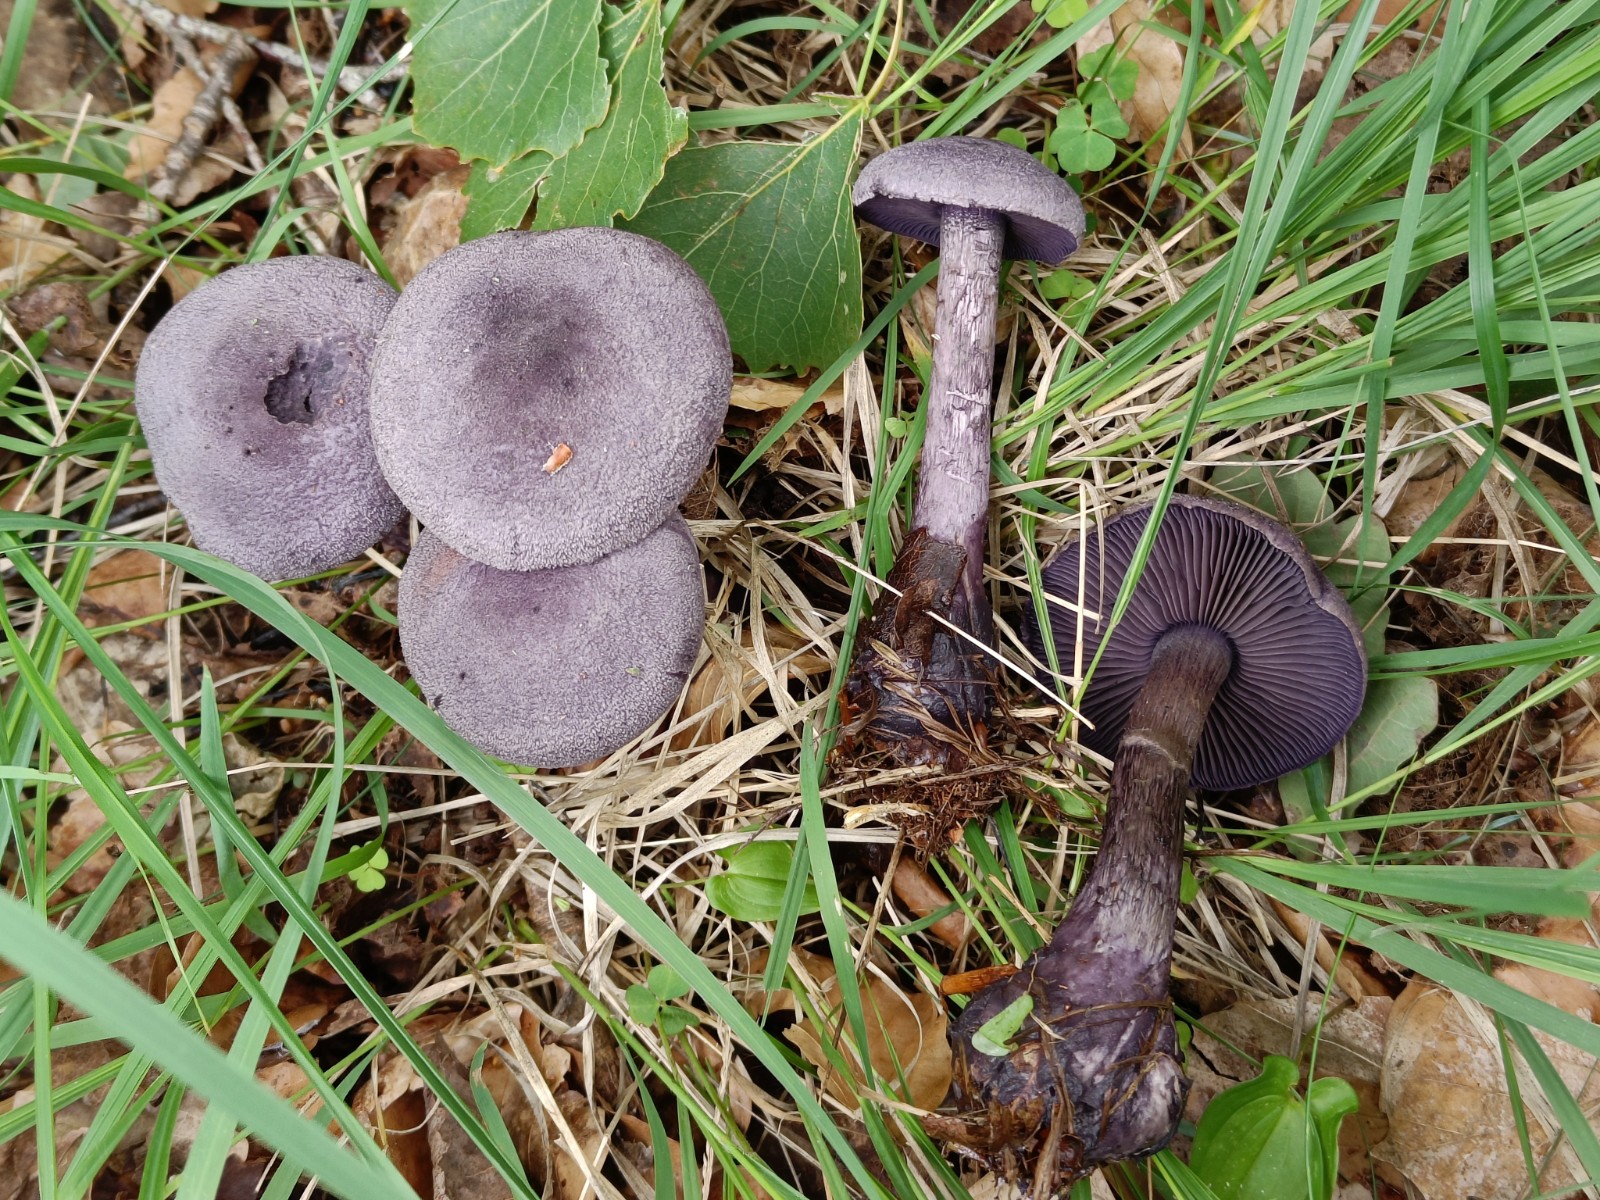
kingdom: Fungi
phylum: Basidiomycota
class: Agaricomycetes
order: Agaricales
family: Cortinariaceae
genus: Cortinarius
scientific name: Cortinarius violaceus
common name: mørkviolet slørhat
